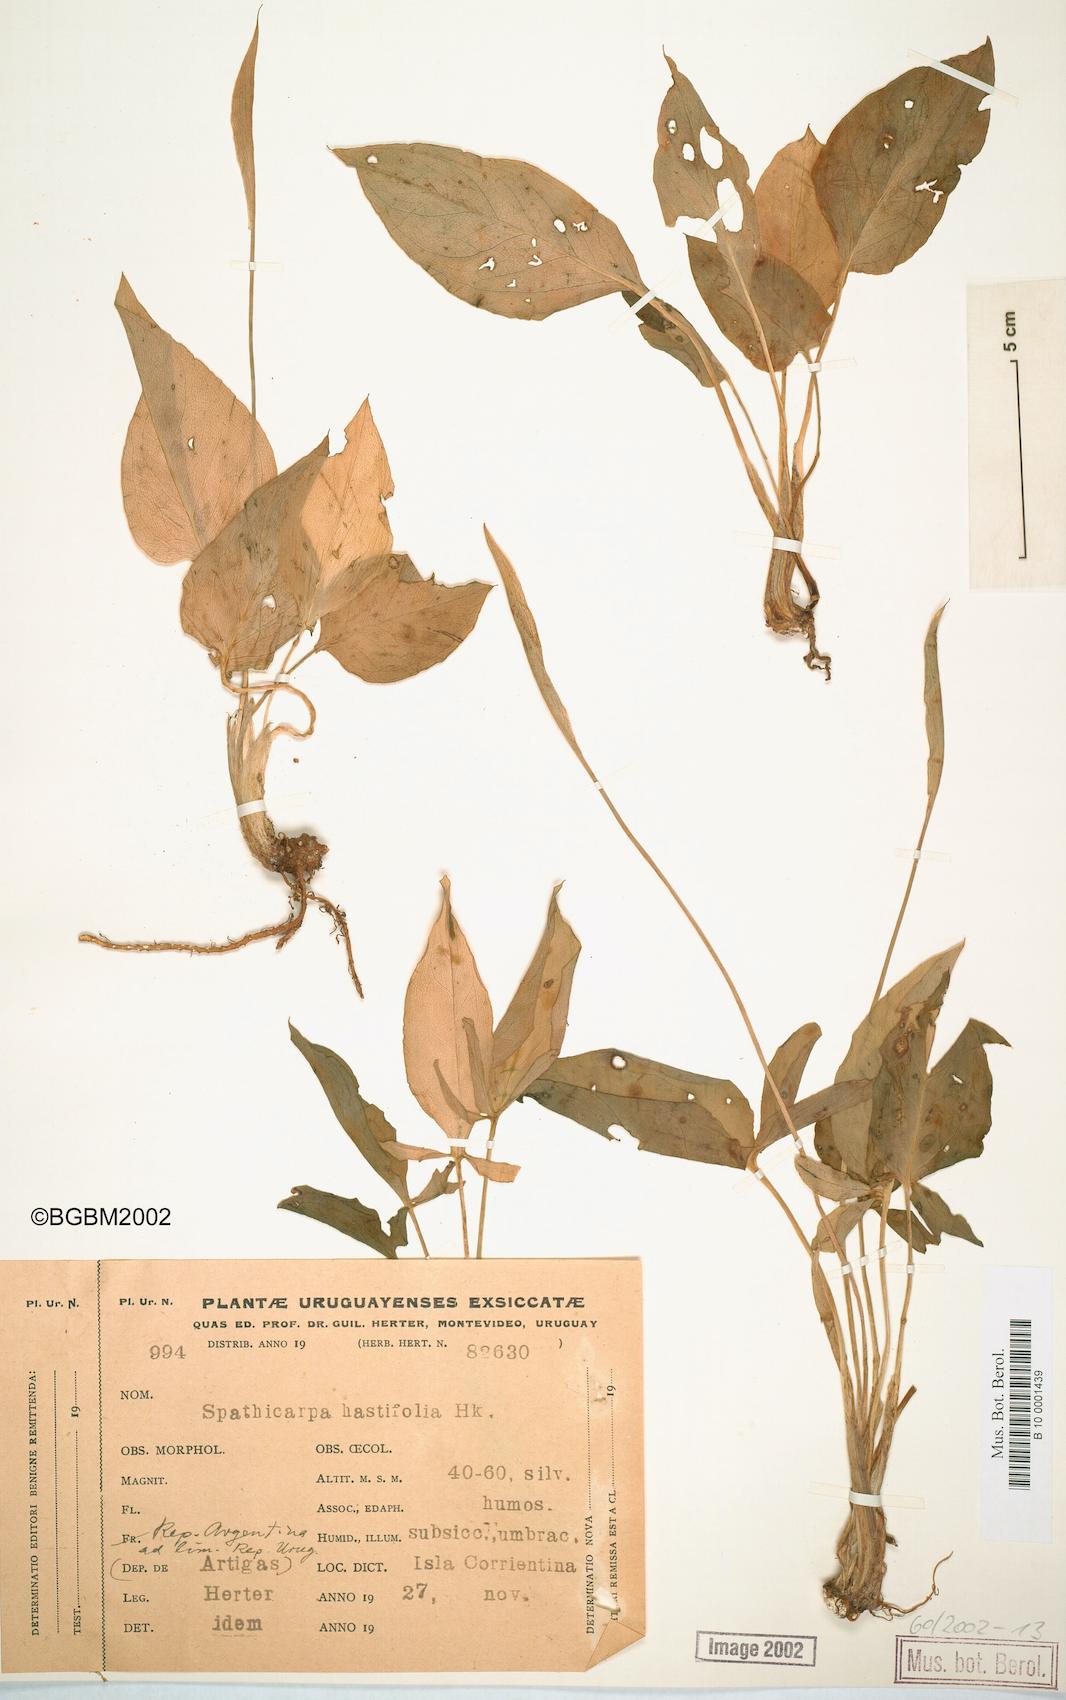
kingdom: Plantae
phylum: Tracheophyta
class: Liliopsida
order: Alismatales
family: Araceae
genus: Spathicarpa
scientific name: Spathicarpa hastifolia
